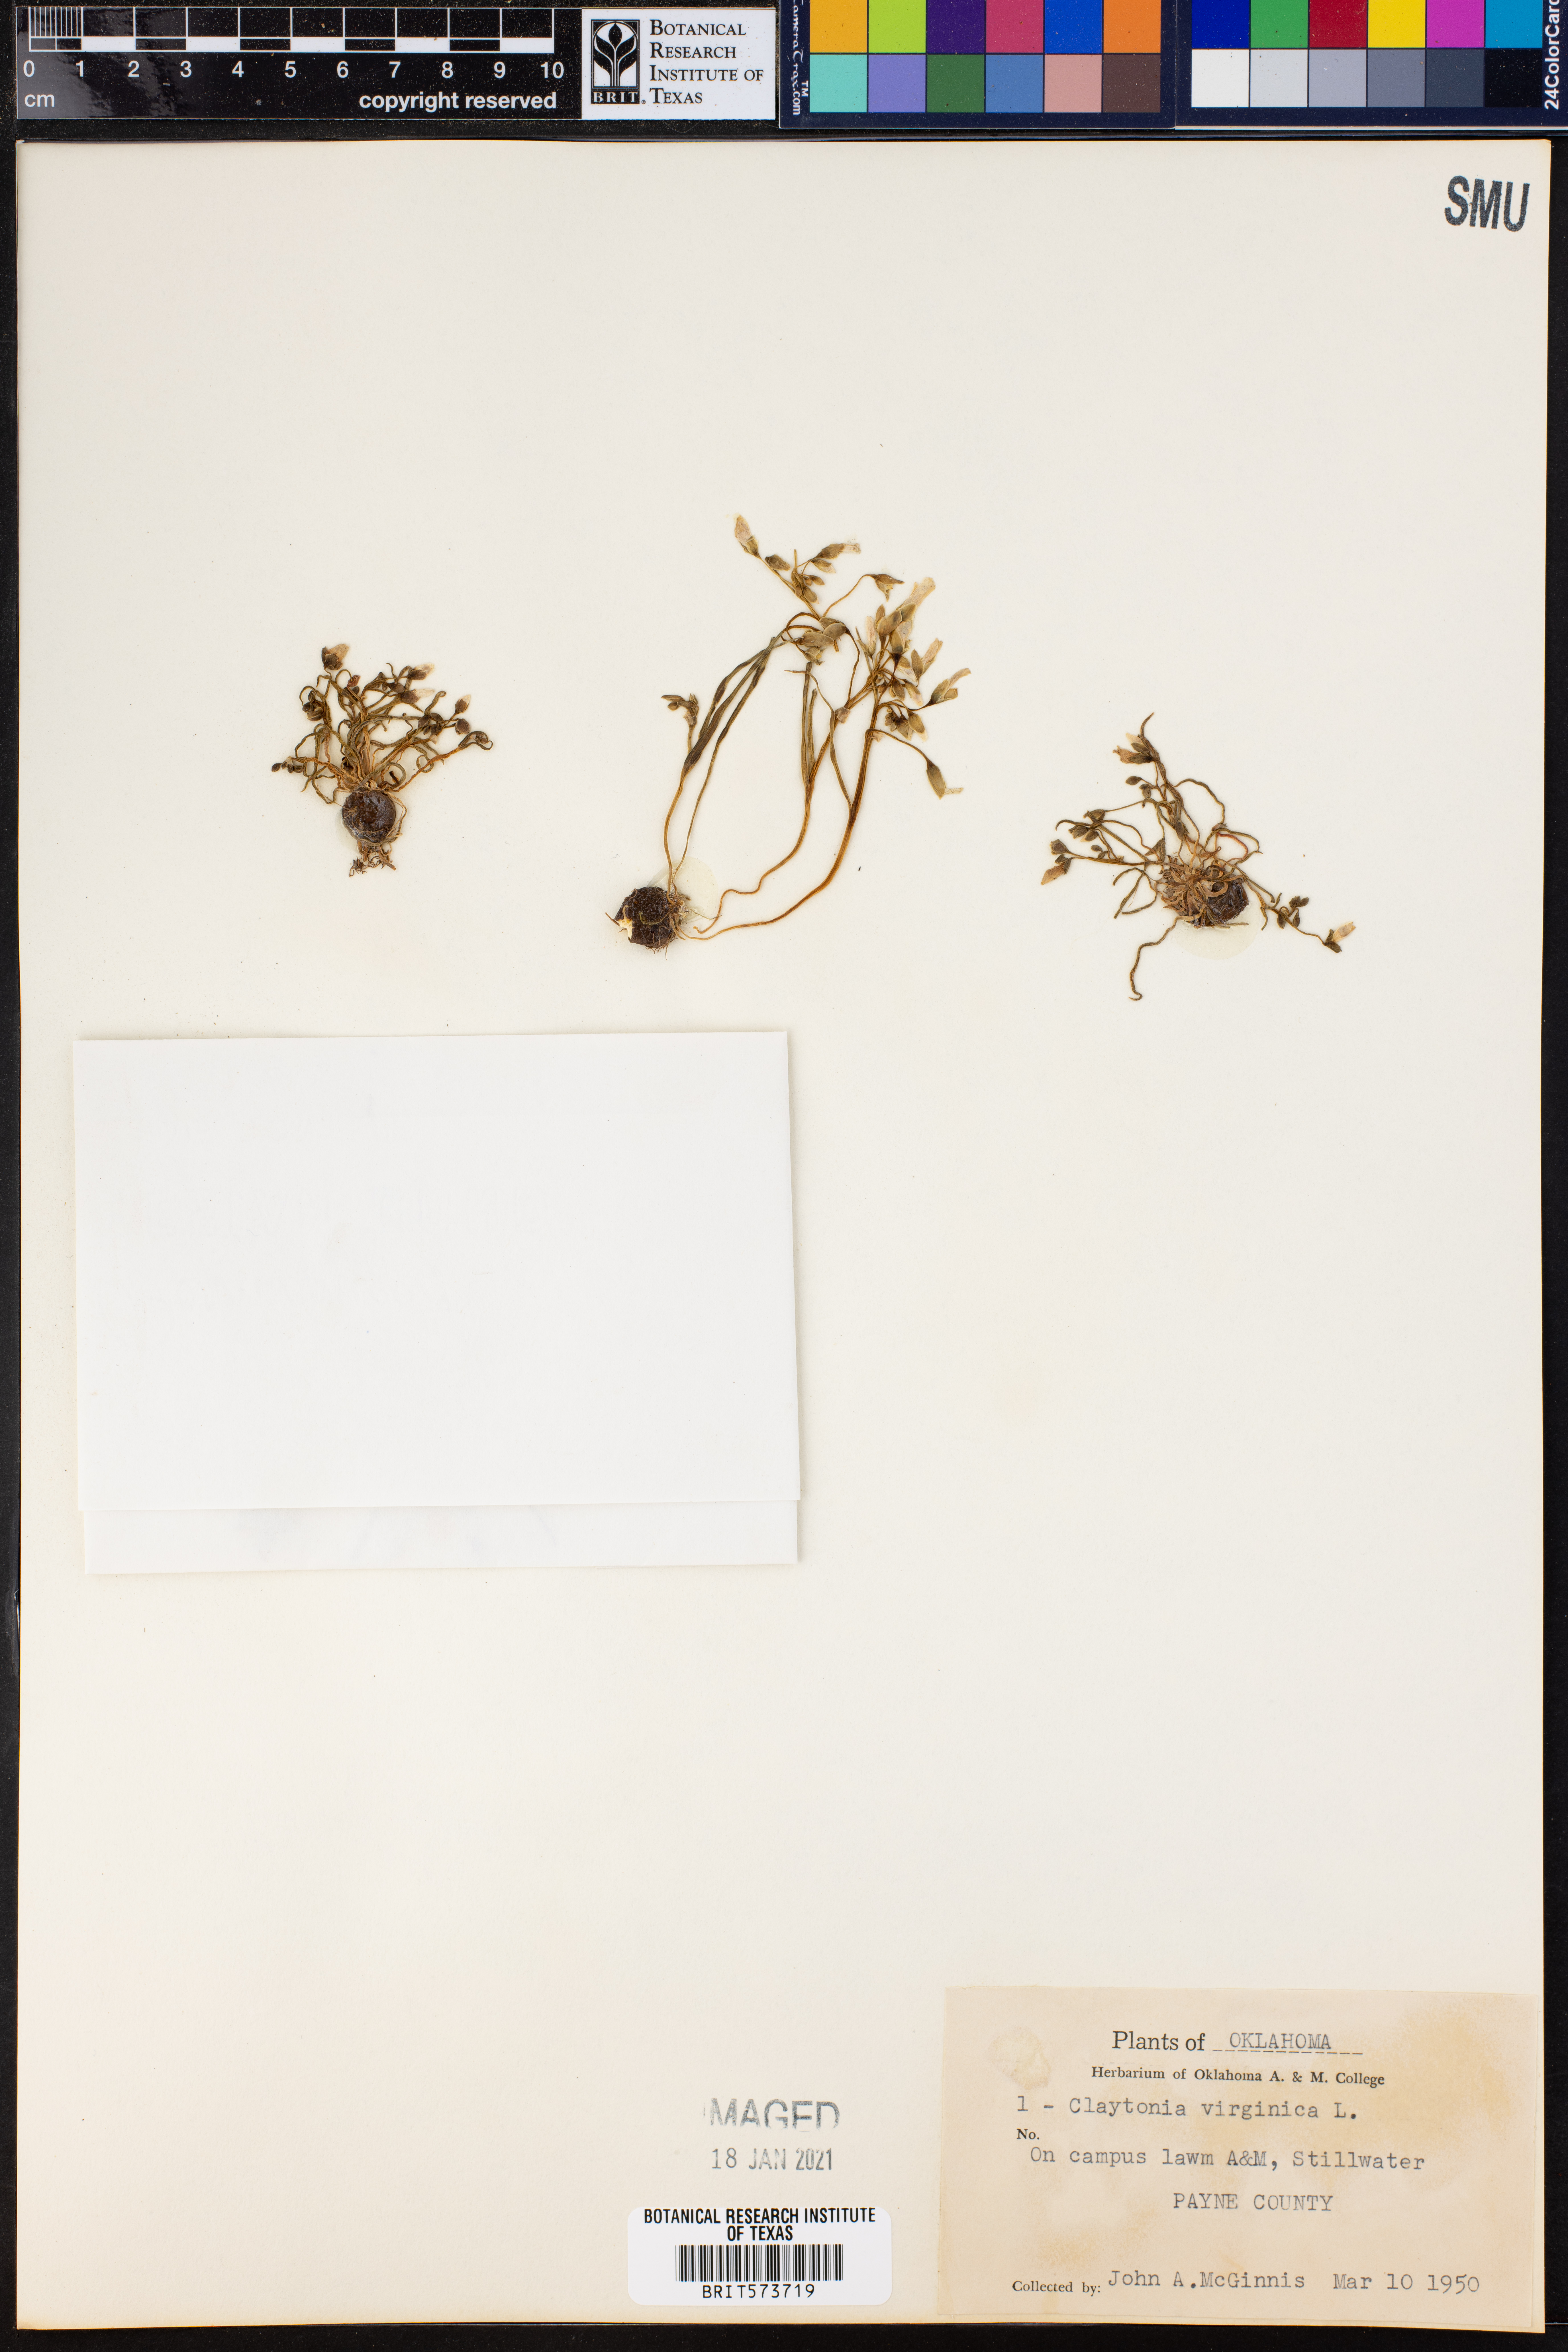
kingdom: Plantae
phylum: Tracheophyta
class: Magnoliopsida
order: Caryophyllales
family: Montiaceae
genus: Claytonia
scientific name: Claytonia virginica
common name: Virginia springbeauty
